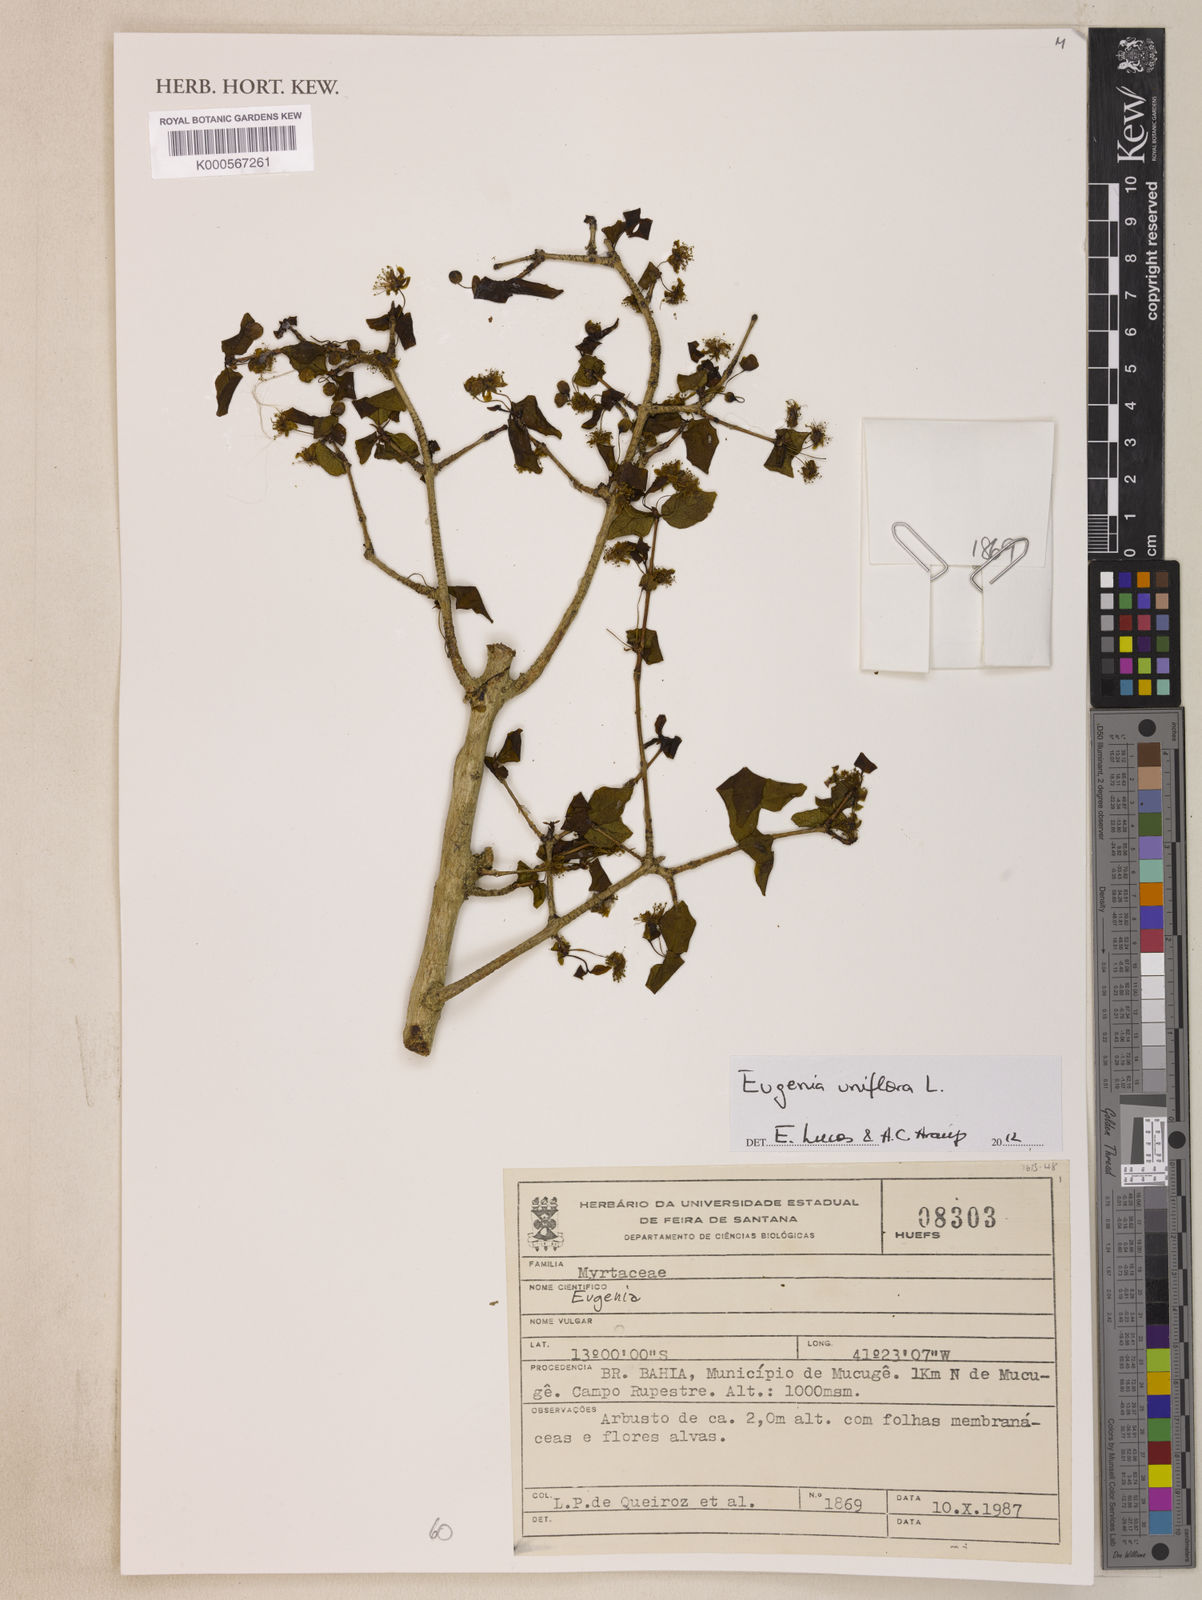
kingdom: Plantae
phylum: Tracheophyta
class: Magnoliopsida
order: Myrtales
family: Myrtaceae
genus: Eugenia
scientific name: Eugenia uniflora
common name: Surinam cherry
